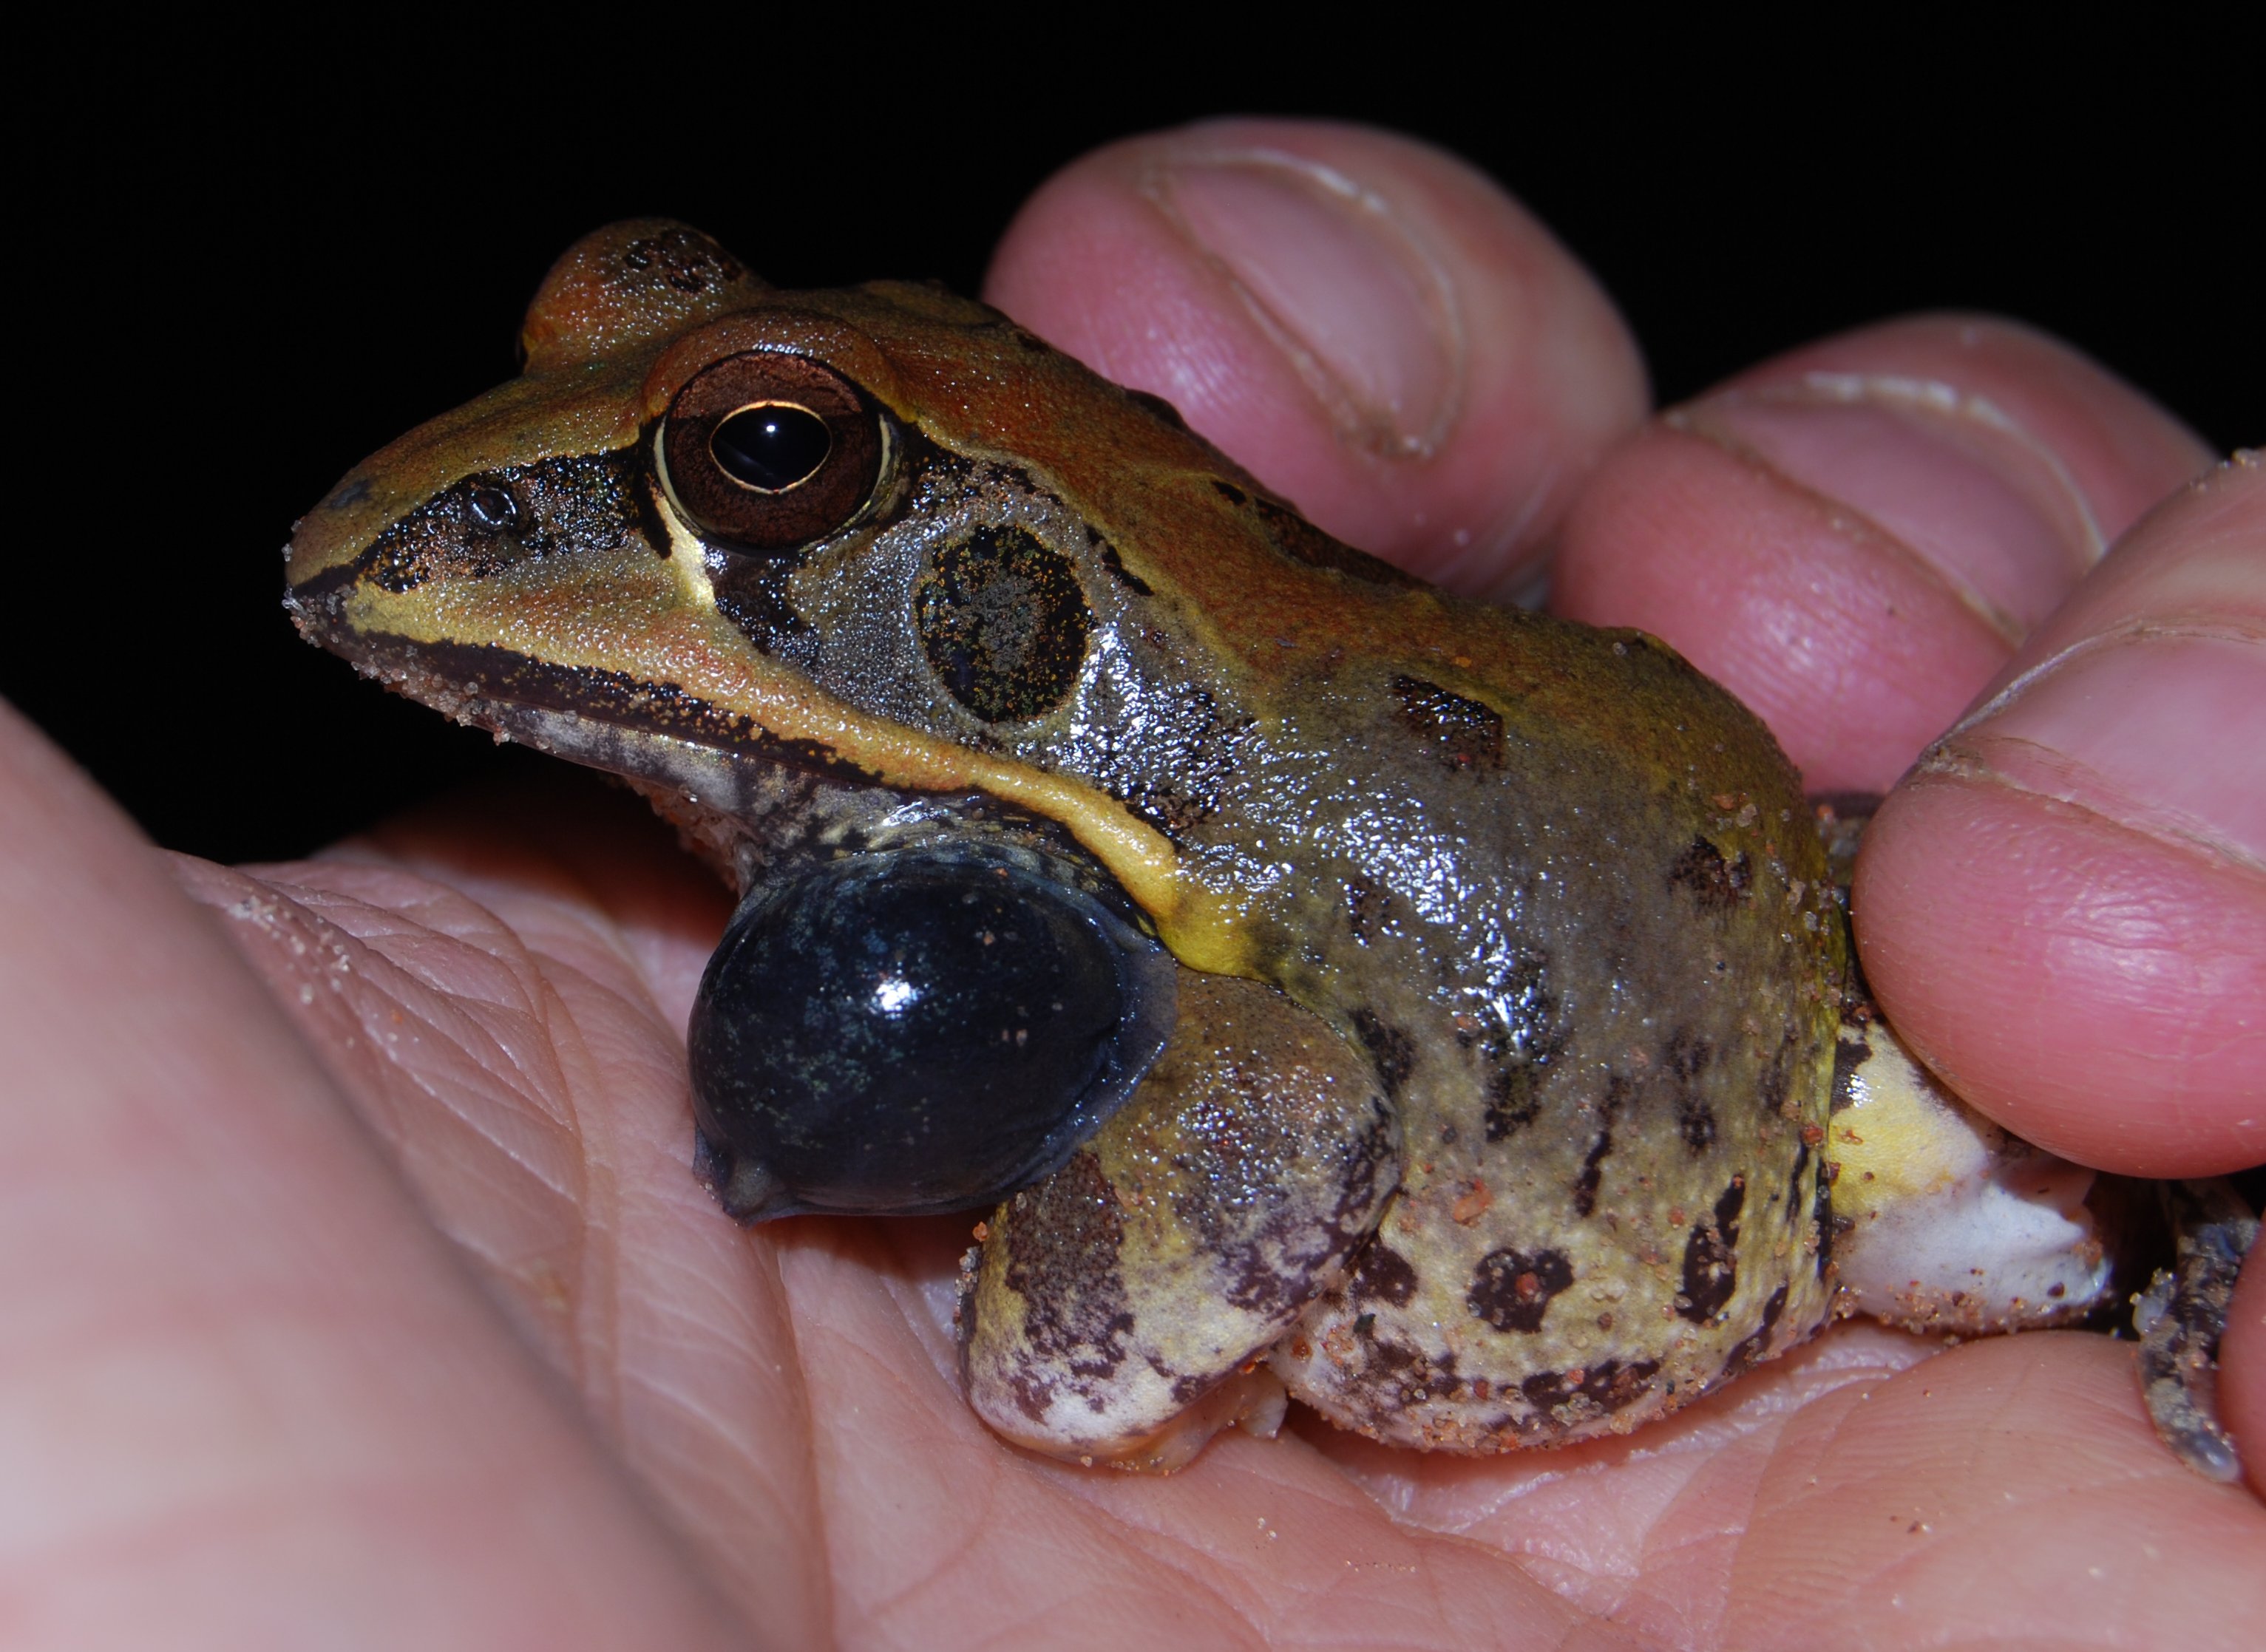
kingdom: Animalia
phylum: Chordata
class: Amphibia
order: Anura
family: Ptychadenidae
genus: Hildebrandtia
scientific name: Hildebrandtia
